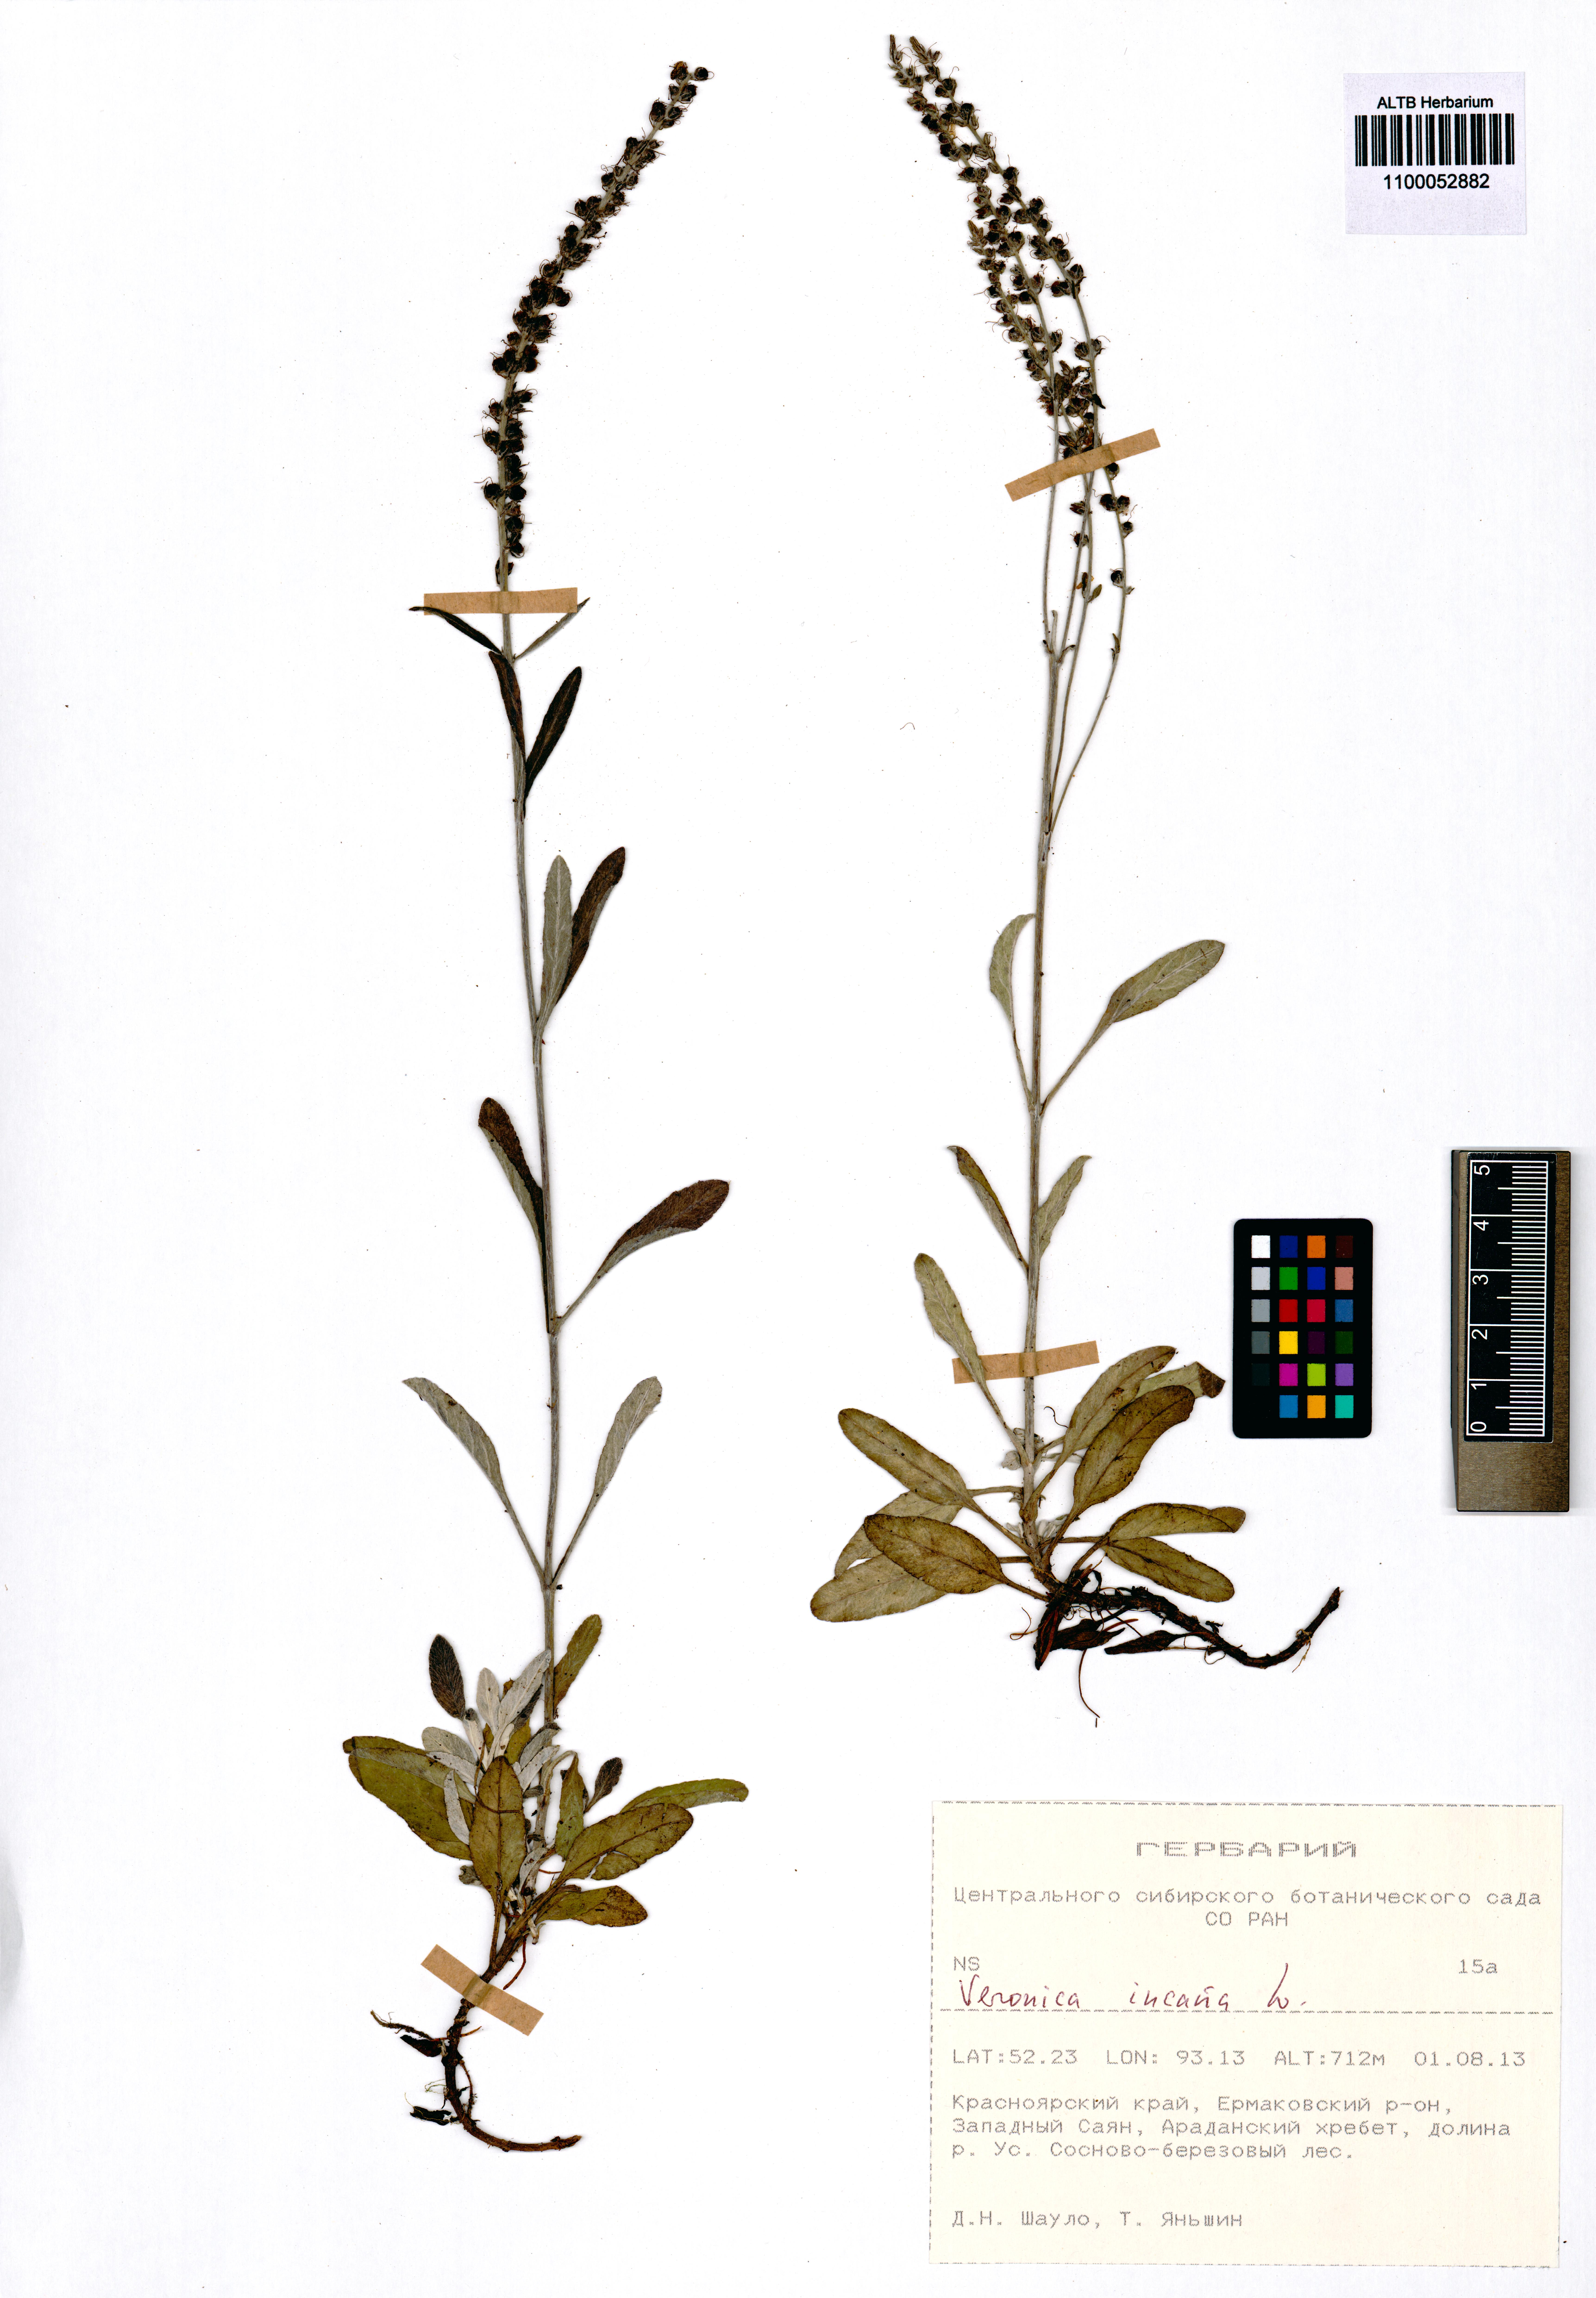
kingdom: Plantae
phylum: Tracheophyta
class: Magnoliopsida
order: Lamiales
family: Plantaginaceae
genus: Veronica
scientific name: Veronica incana
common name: Silver speedwell
